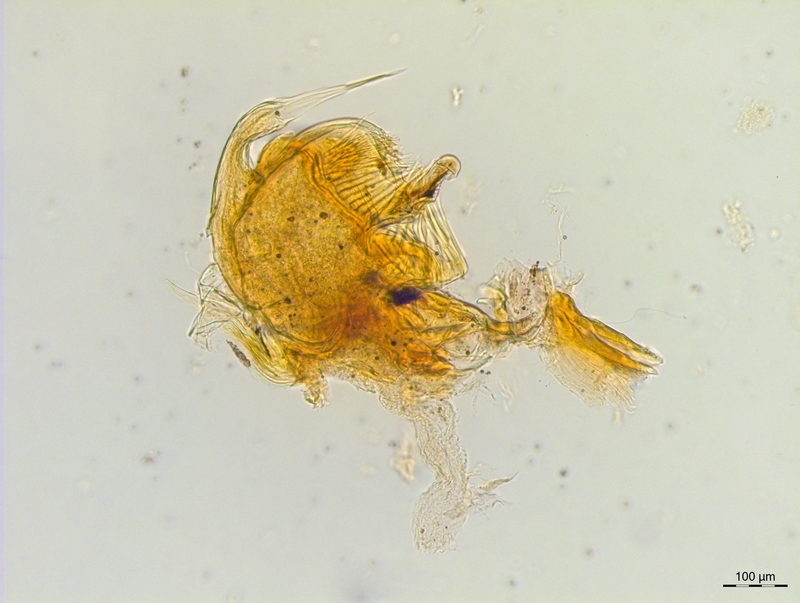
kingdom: Animalia
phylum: Arthropoda
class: Diplopoda
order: Chordeumatida
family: Craspedosomatidae
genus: Craspedosoma
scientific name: Craspedosoma slavum
